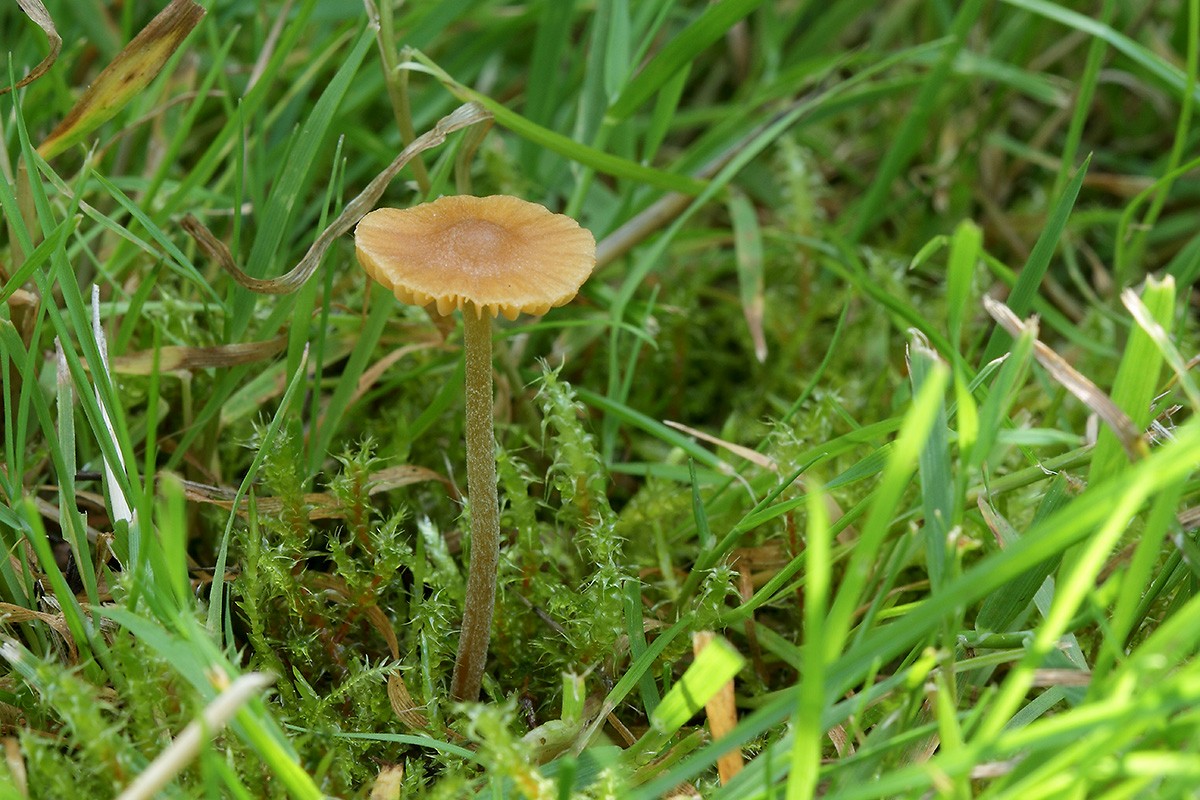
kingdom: Fungi
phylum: Basidiomycota
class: Agaricomycetes
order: Agaricales
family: Hymenogastraceae
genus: Galerina
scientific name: Galerina clavata
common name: kær-hjelmhat
